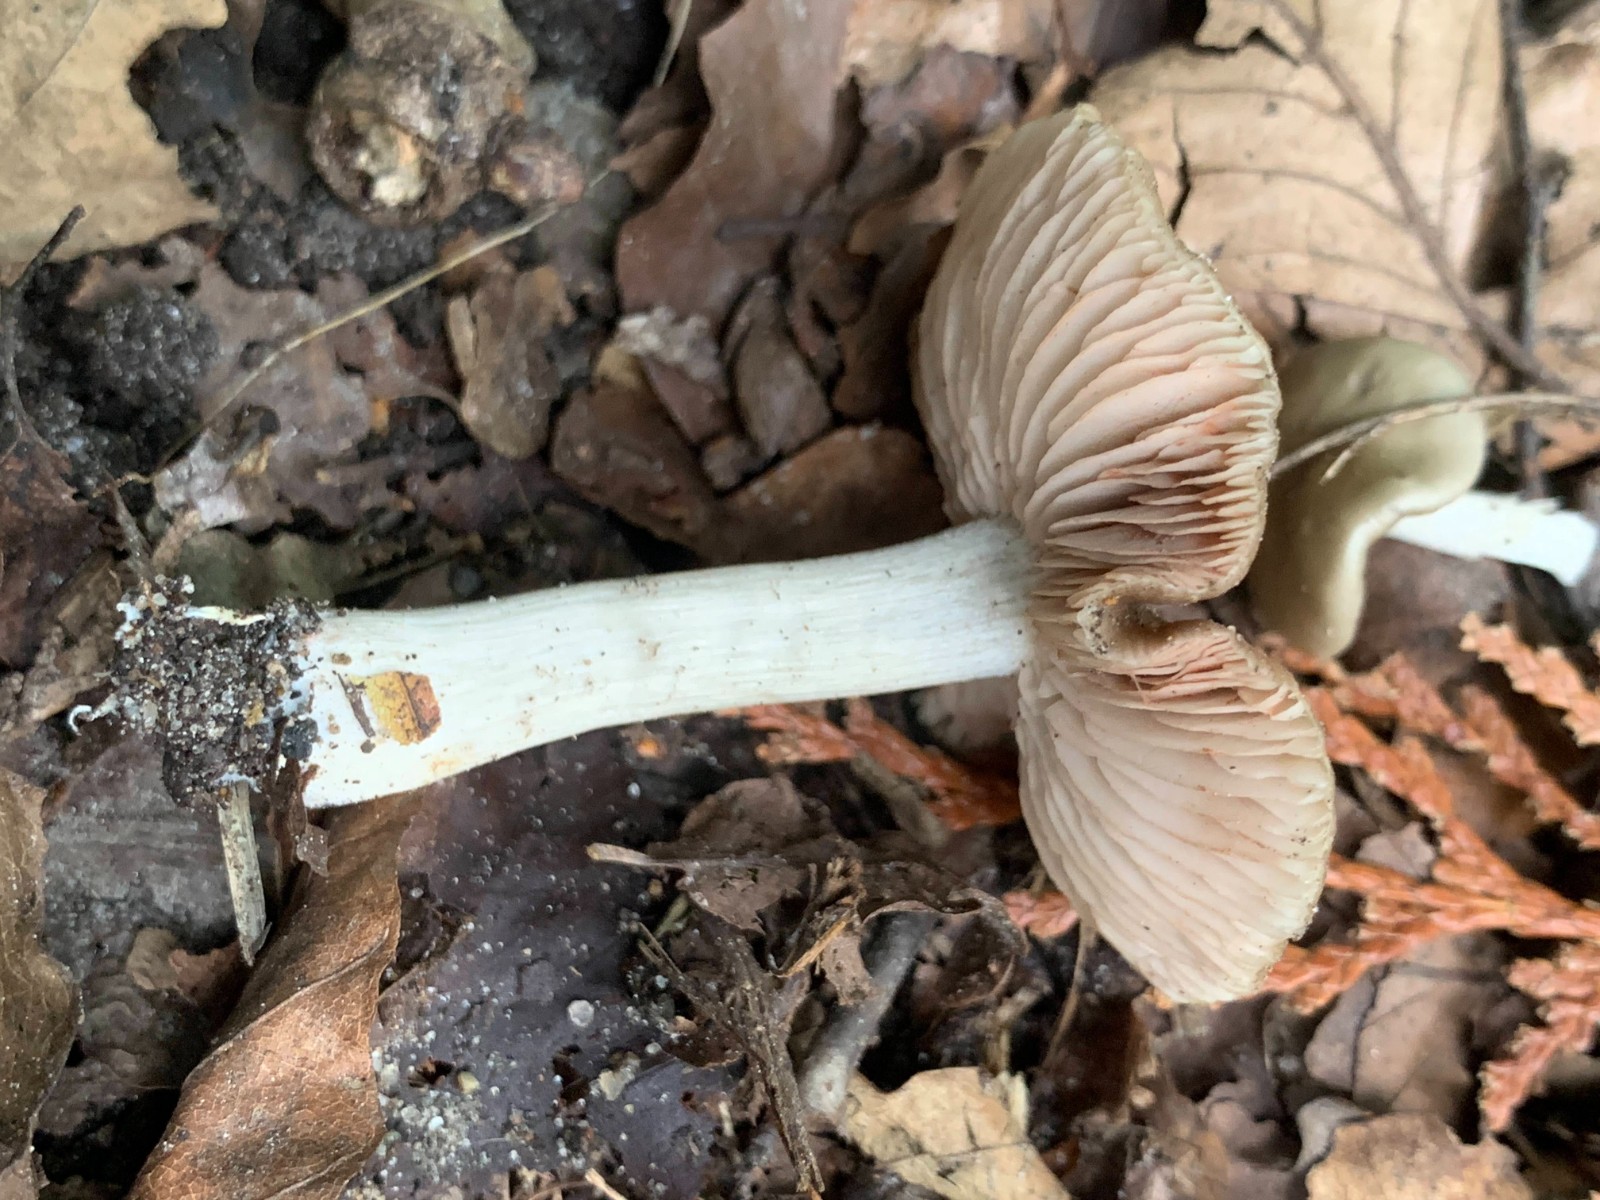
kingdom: Fungi
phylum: Basidiomycota
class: Agaricomycetes
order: Agaricales
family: Entolomataceae
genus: Entoloma
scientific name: Entoloma
